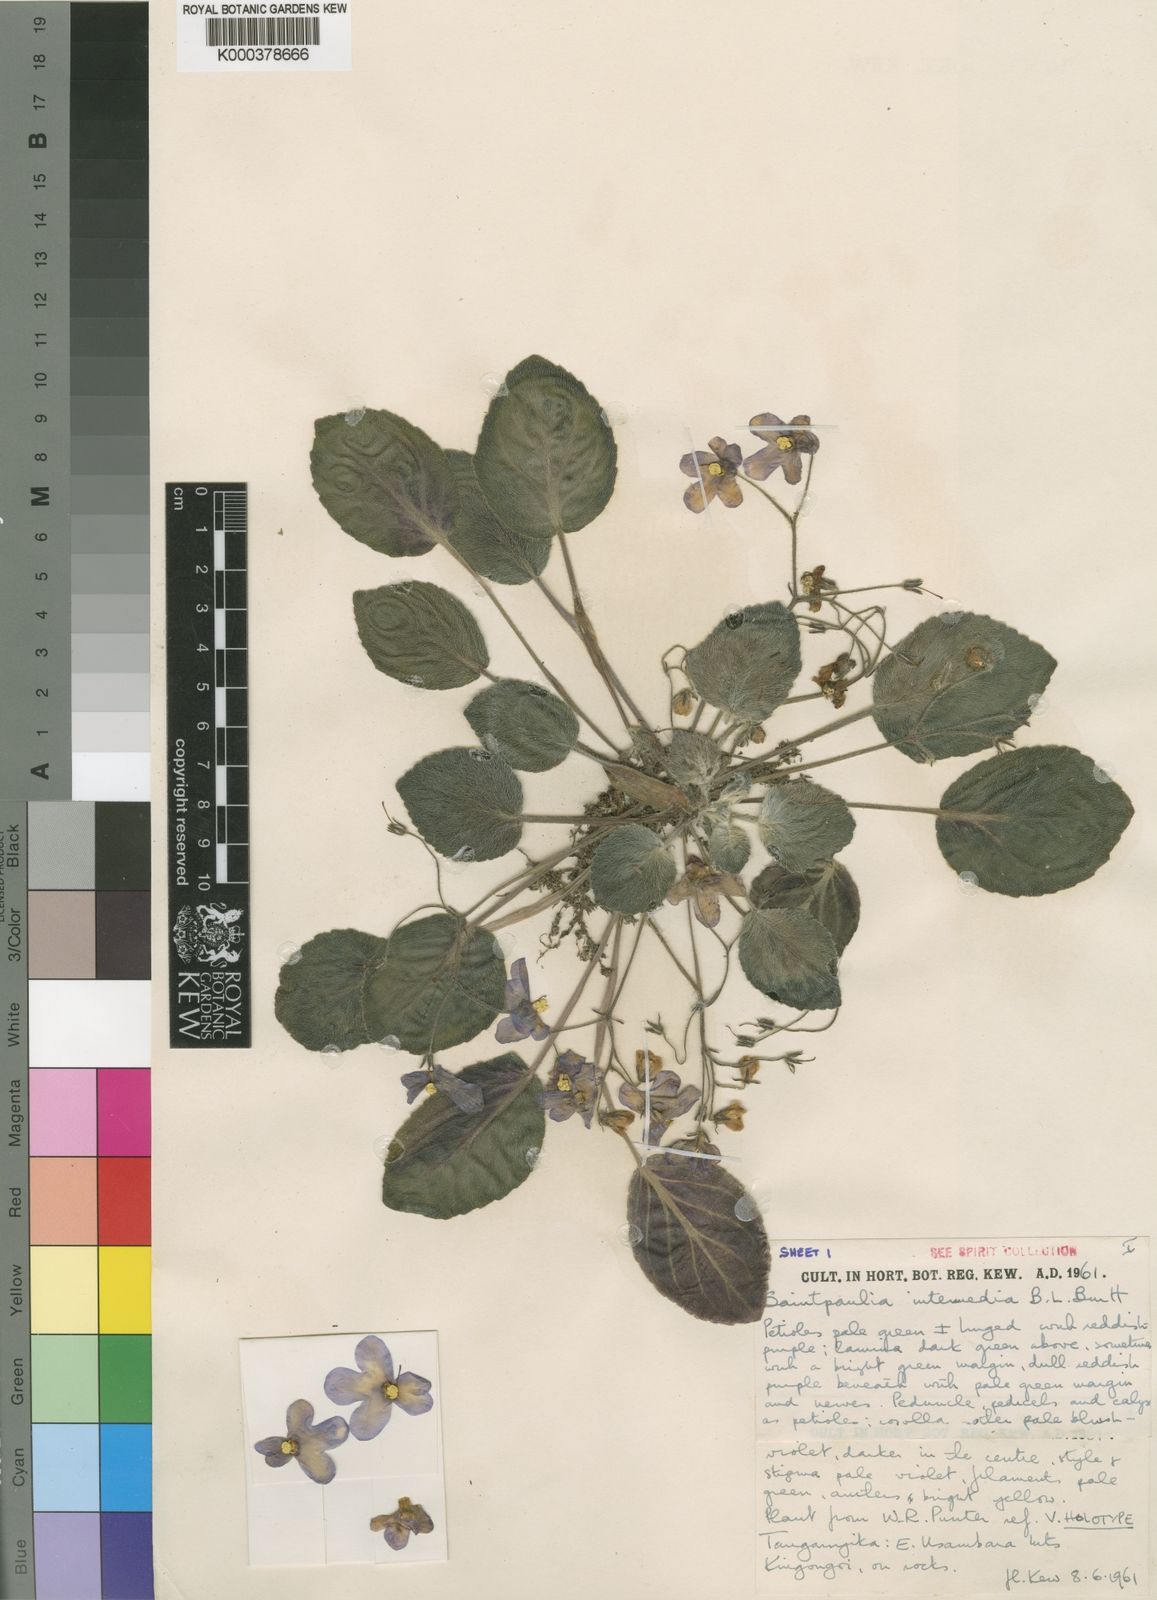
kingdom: Plantae
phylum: Tracheophyta
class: Magnoliopsida
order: Lamiales
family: Gesneriaceae
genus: Streptocarpus
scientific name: Streptocarpus ionanthus
